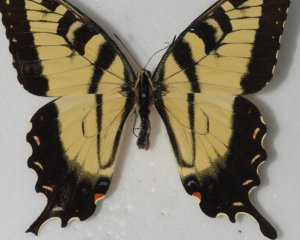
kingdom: Animalia
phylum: Arthropoda
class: Insecta
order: Lepidoptera
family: Papilionidae
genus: Pterourus
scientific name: Pterourus glaucus
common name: Eastern Tiger Swallowtail
